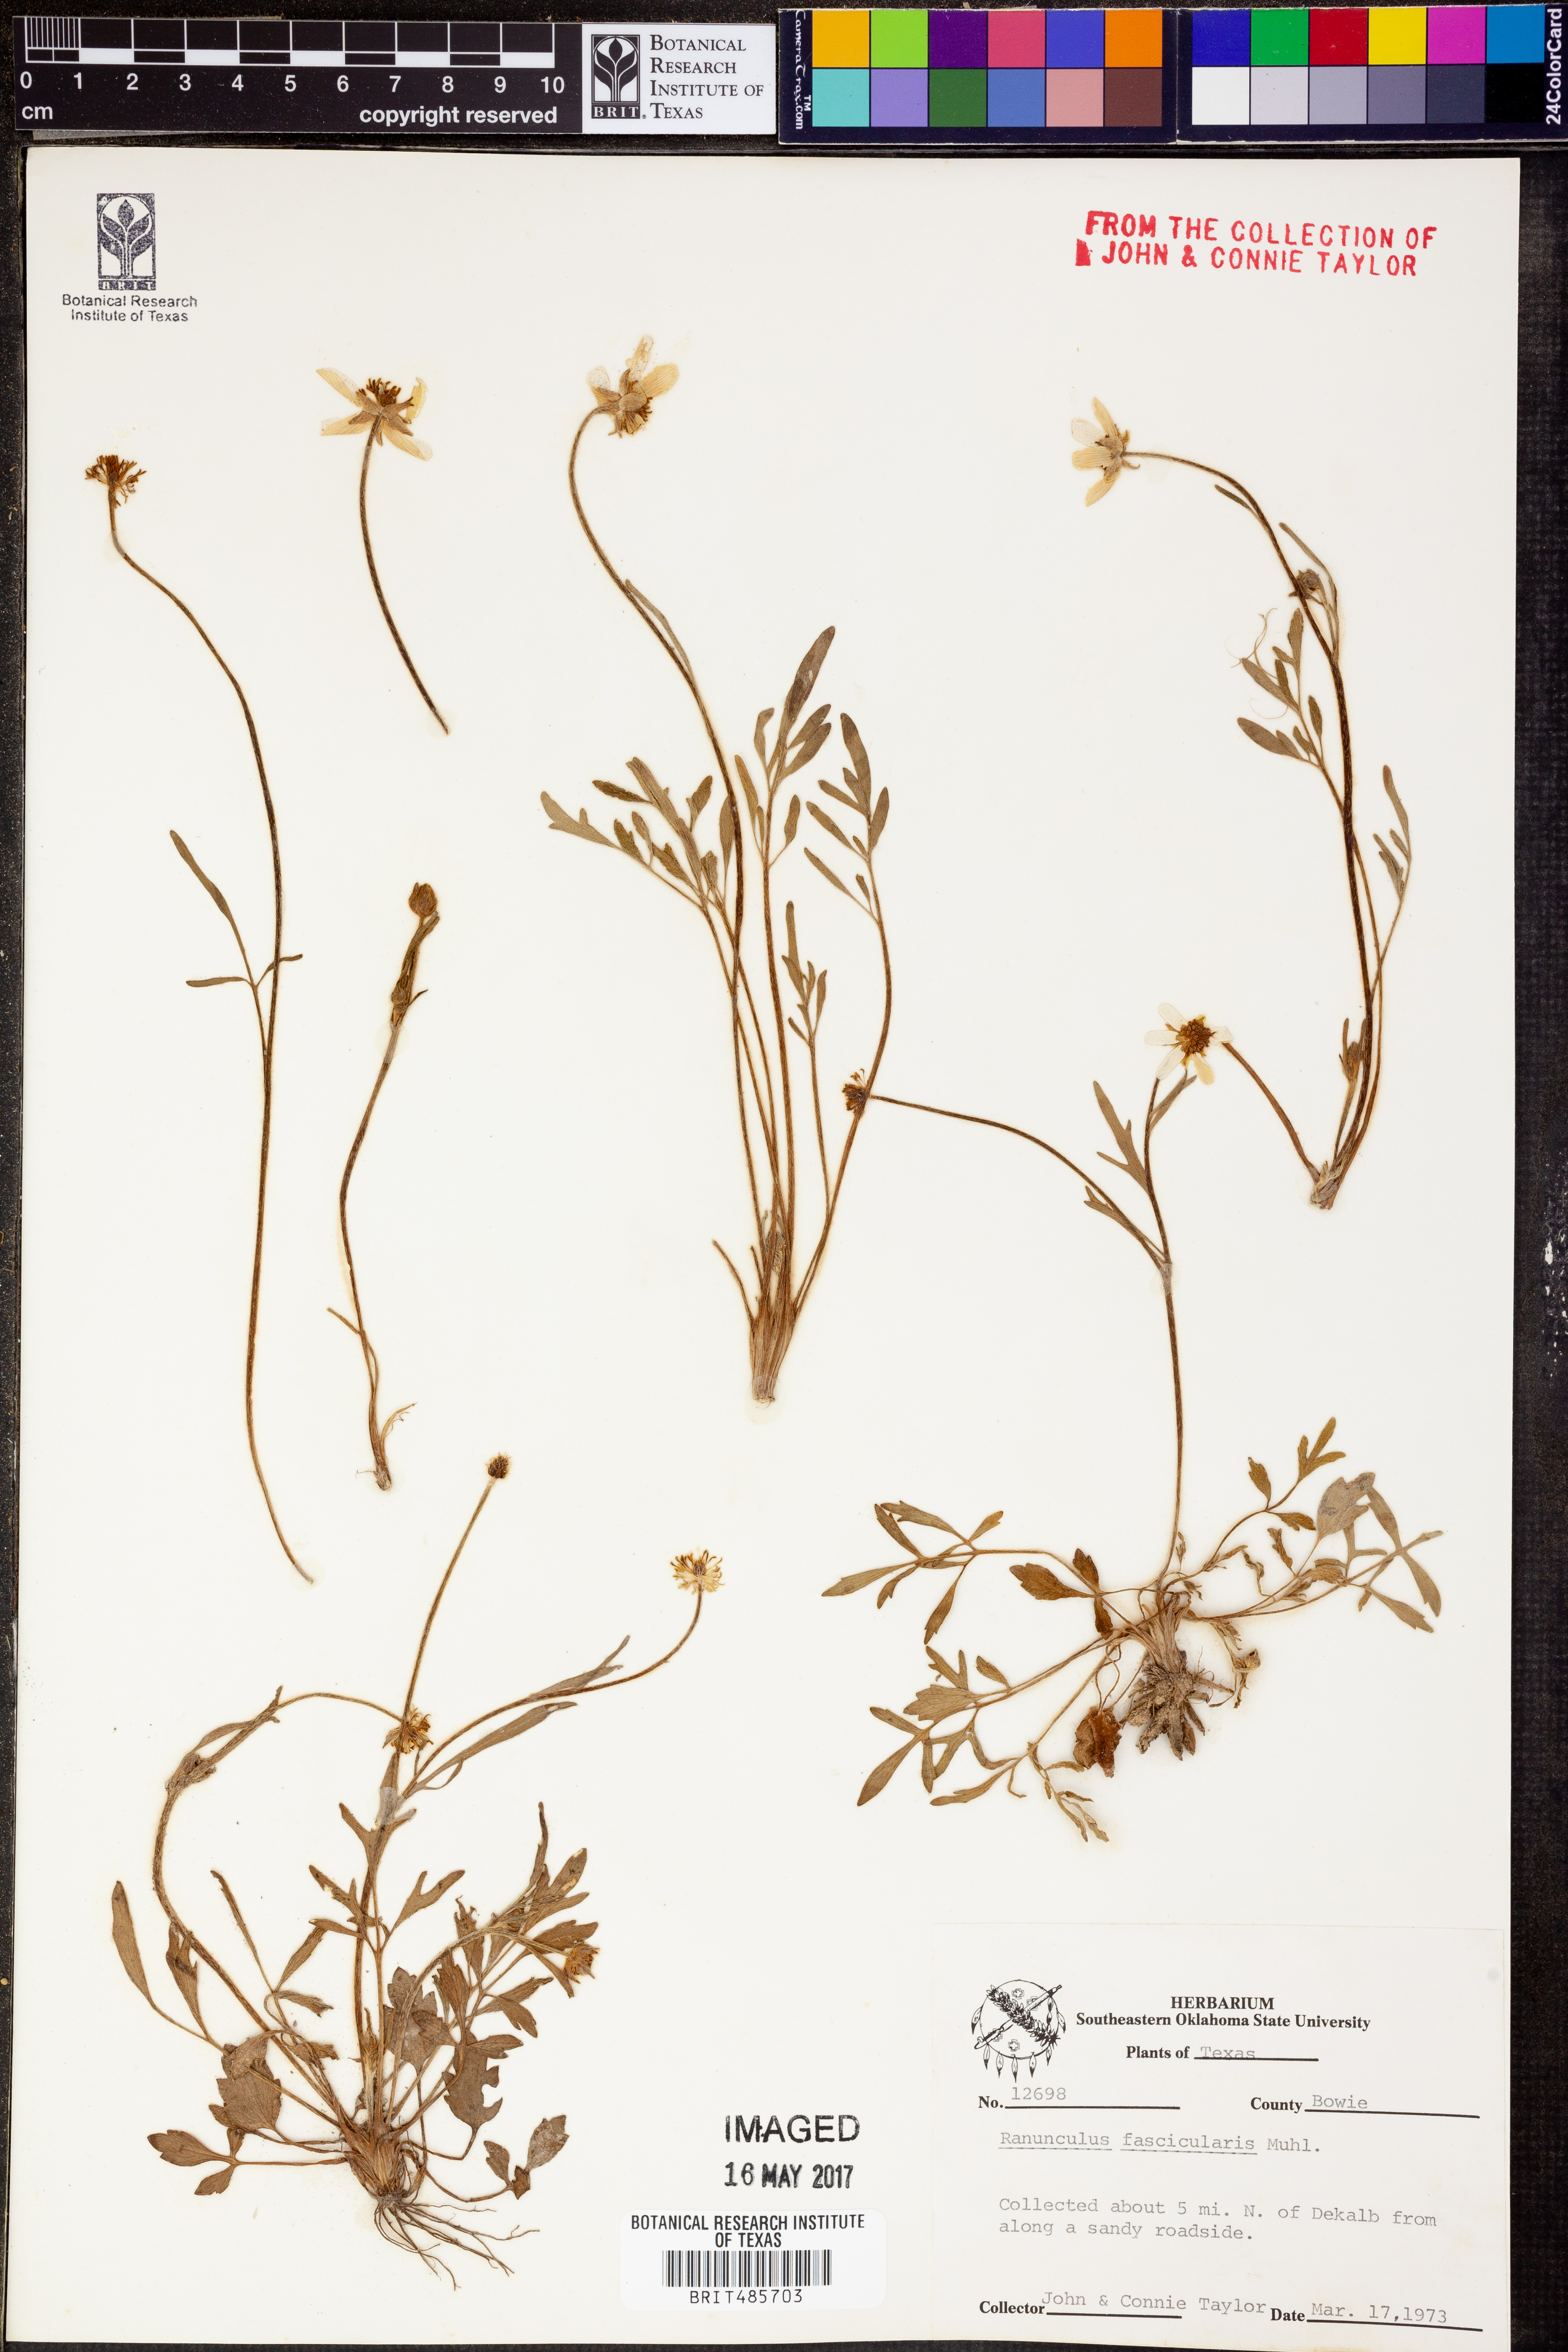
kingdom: Plantae
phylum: Tracheophyta
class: Magnoliopsida
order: Ranunculales
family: Ranunculaceae
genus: Ranunculus
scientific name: Ranunculus fascicularis
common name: Early buttercup
